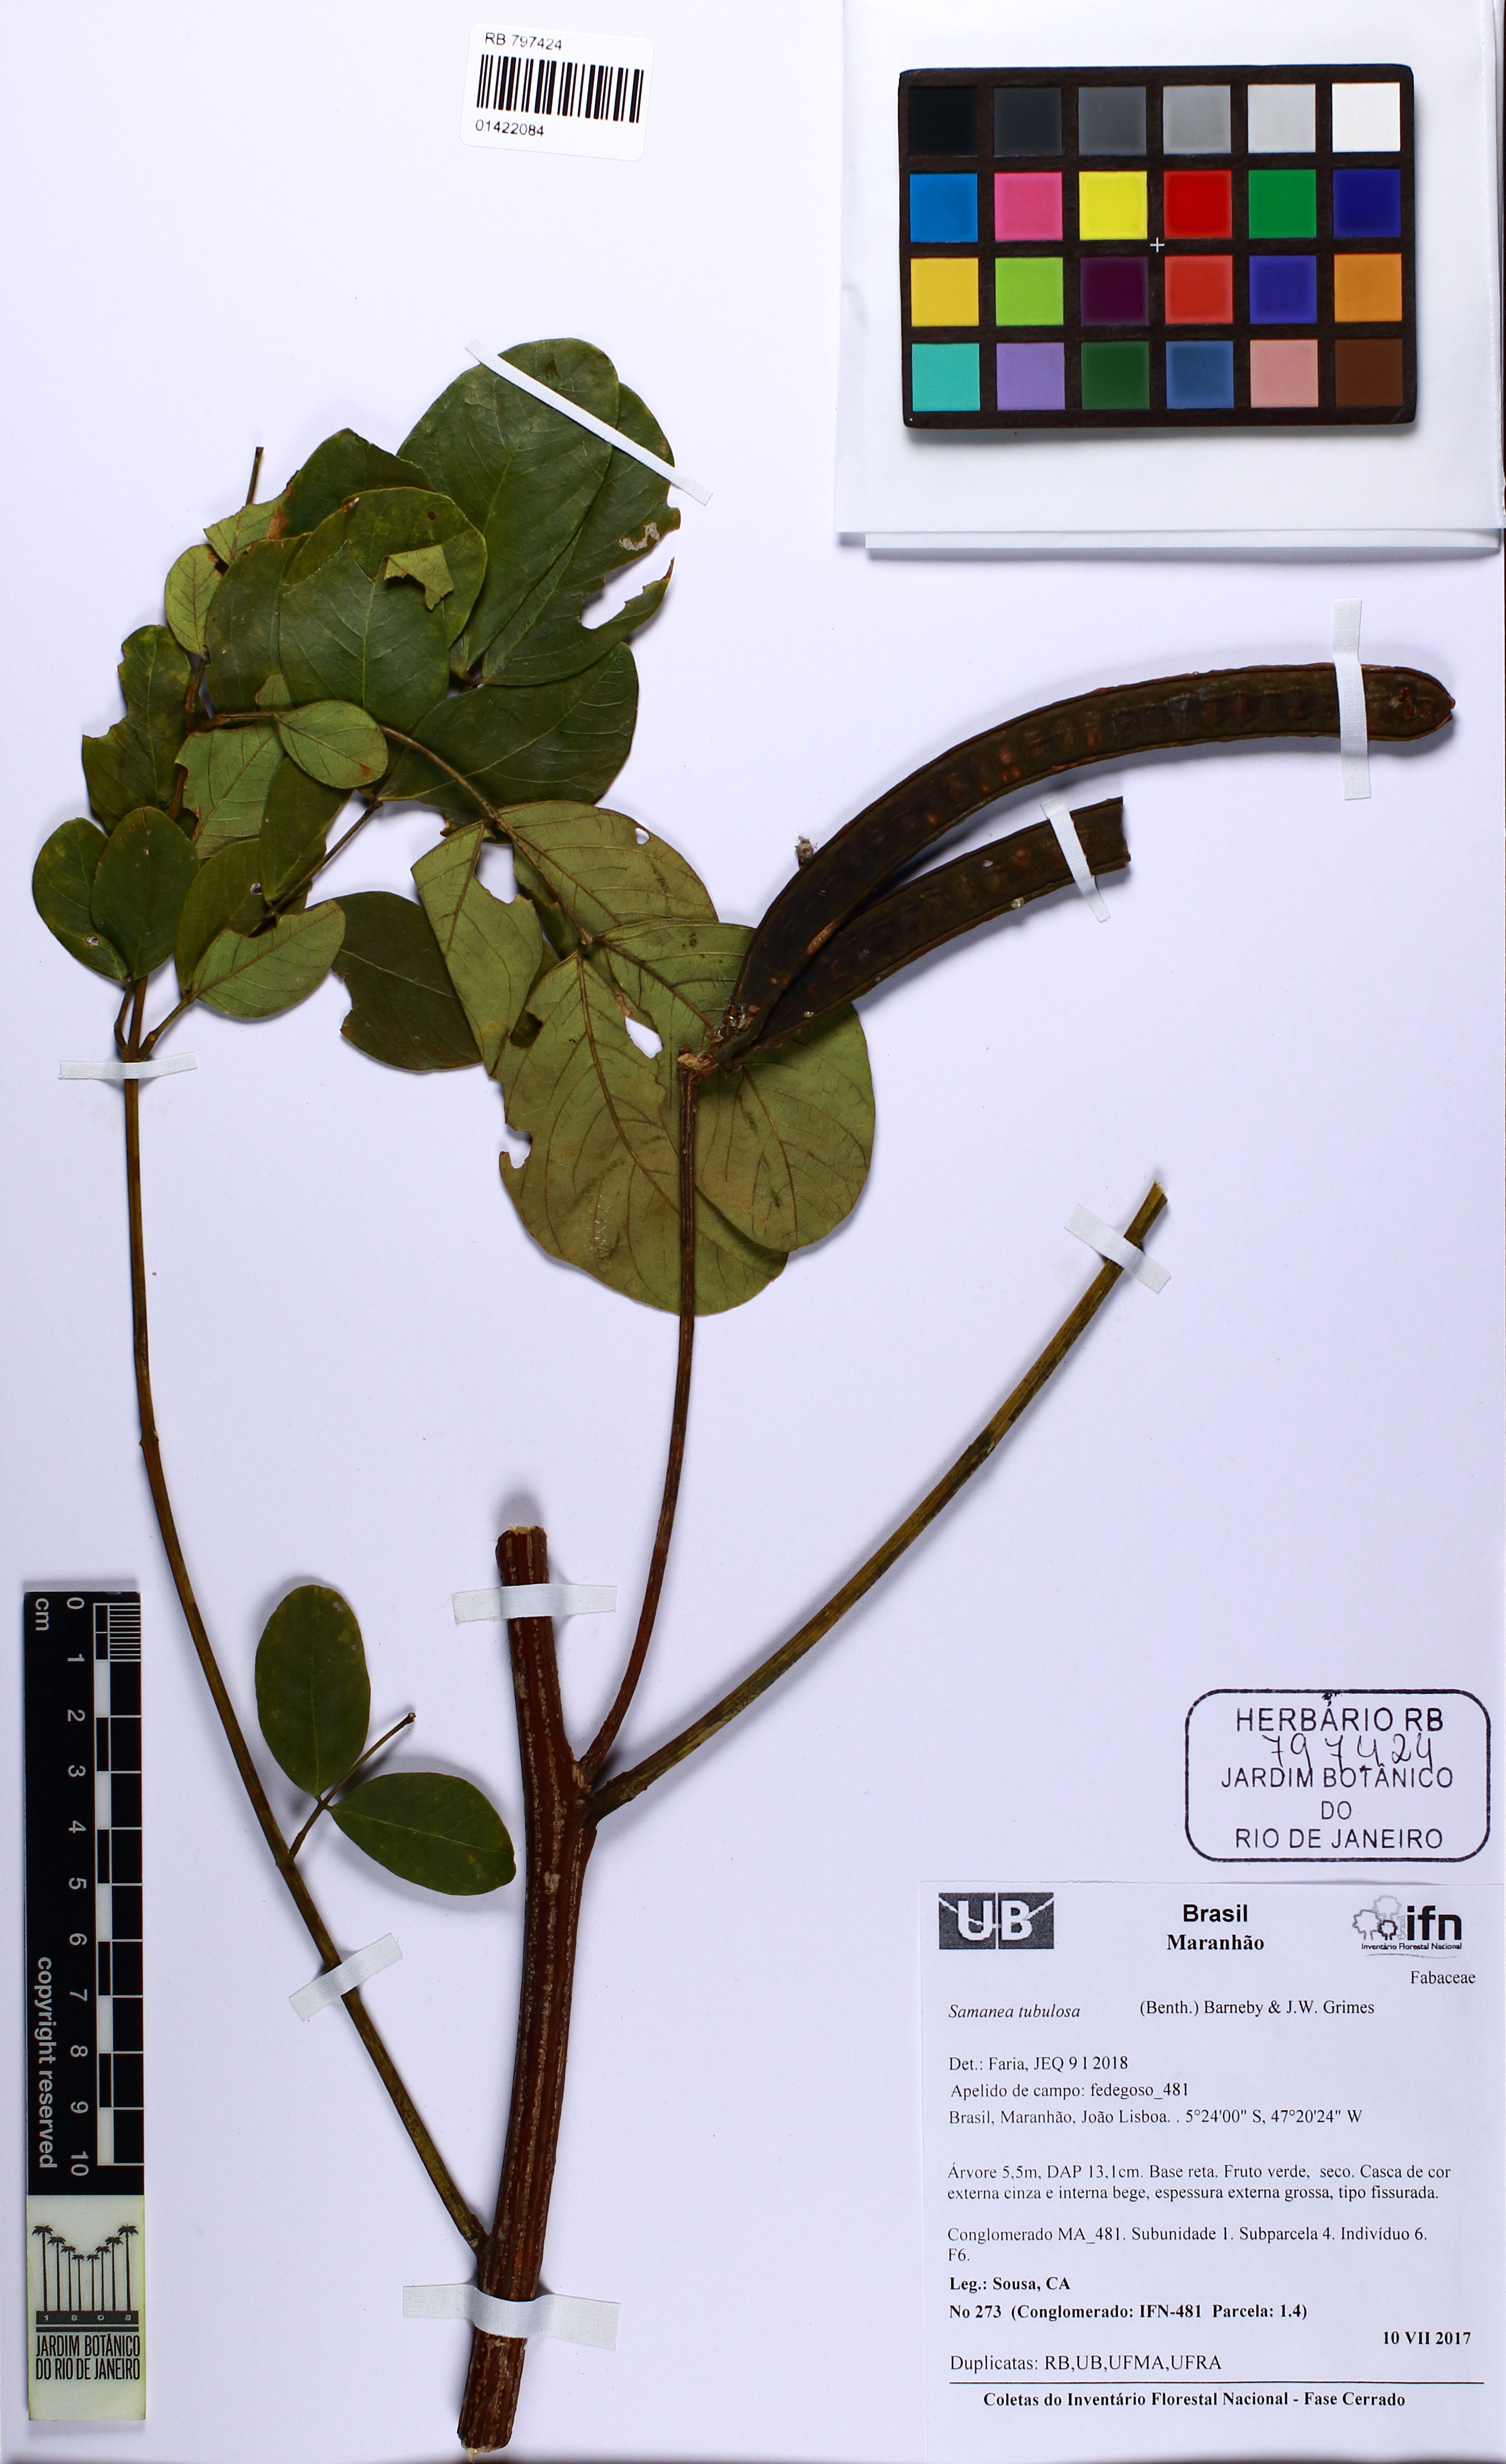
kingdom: Plantae
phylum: Tracheophyta
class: Magnoliopsida
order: Fabales
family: Fabaceae
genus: Samanea
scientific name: Samanea tubulosa
